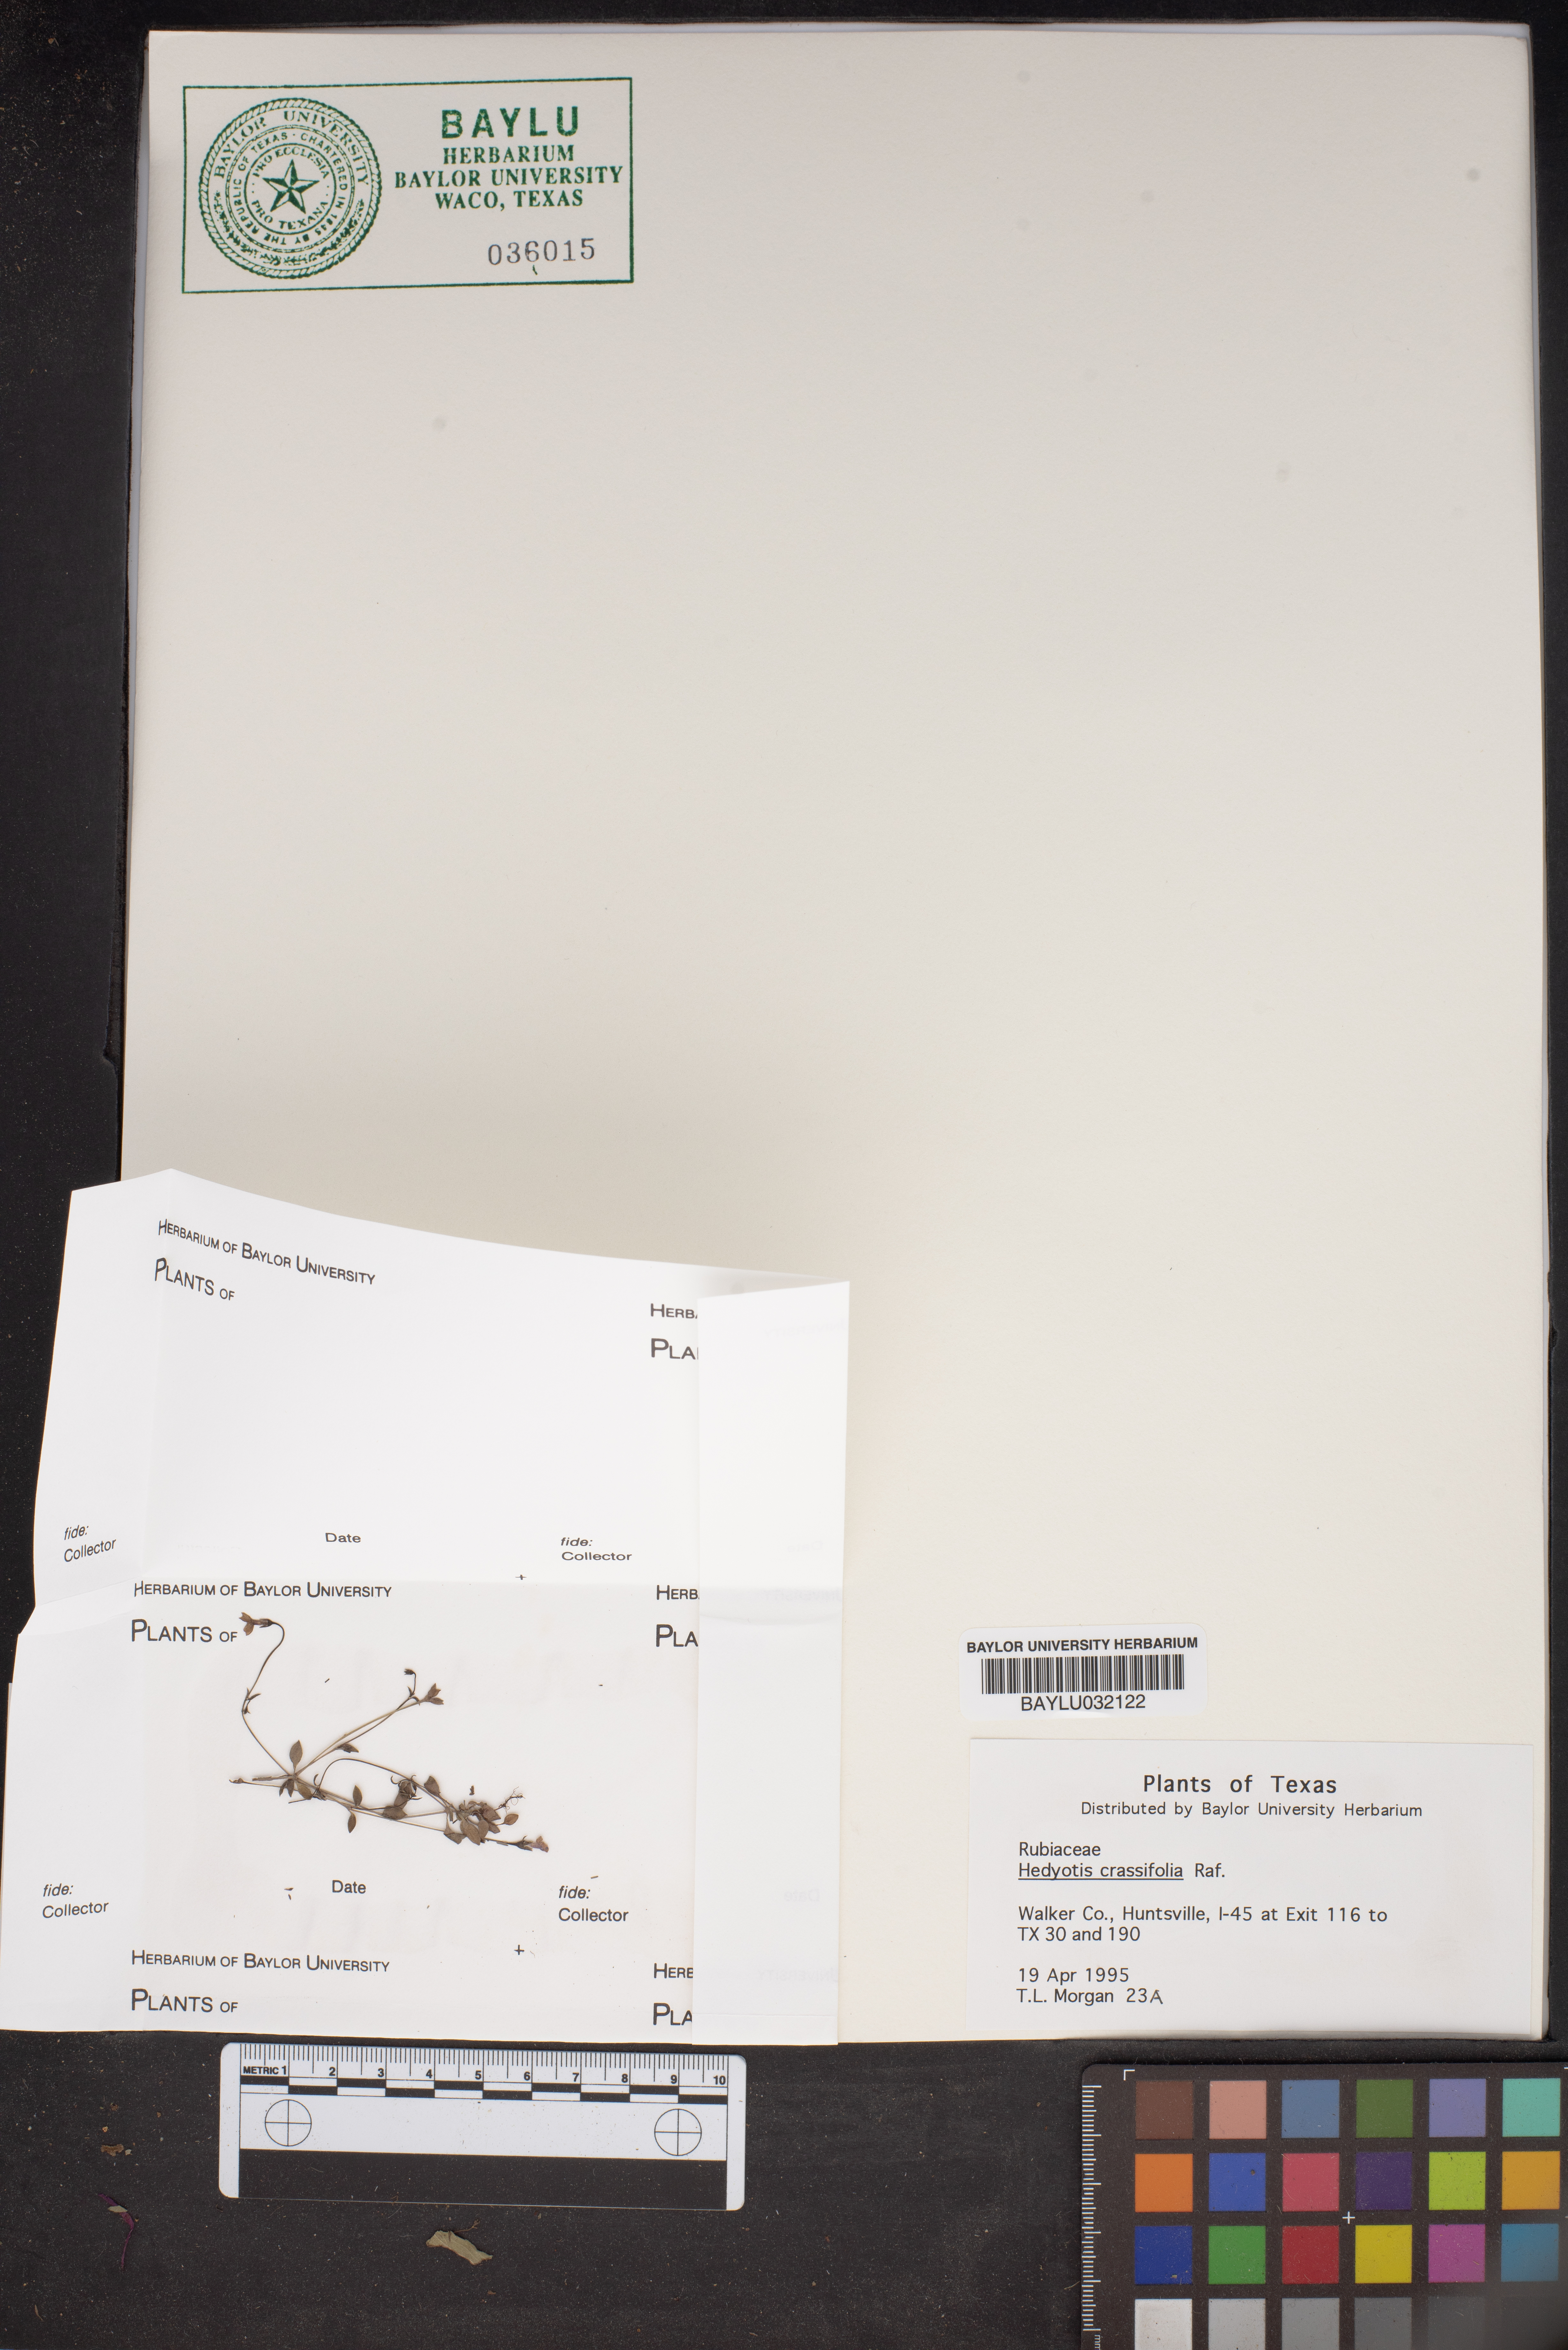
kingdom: Plantae
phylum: Tracheophyta
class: Magnoliopsida
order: Gentianales
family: Rubiaceae
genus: Houstonia
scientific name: Houstonia pusilla
